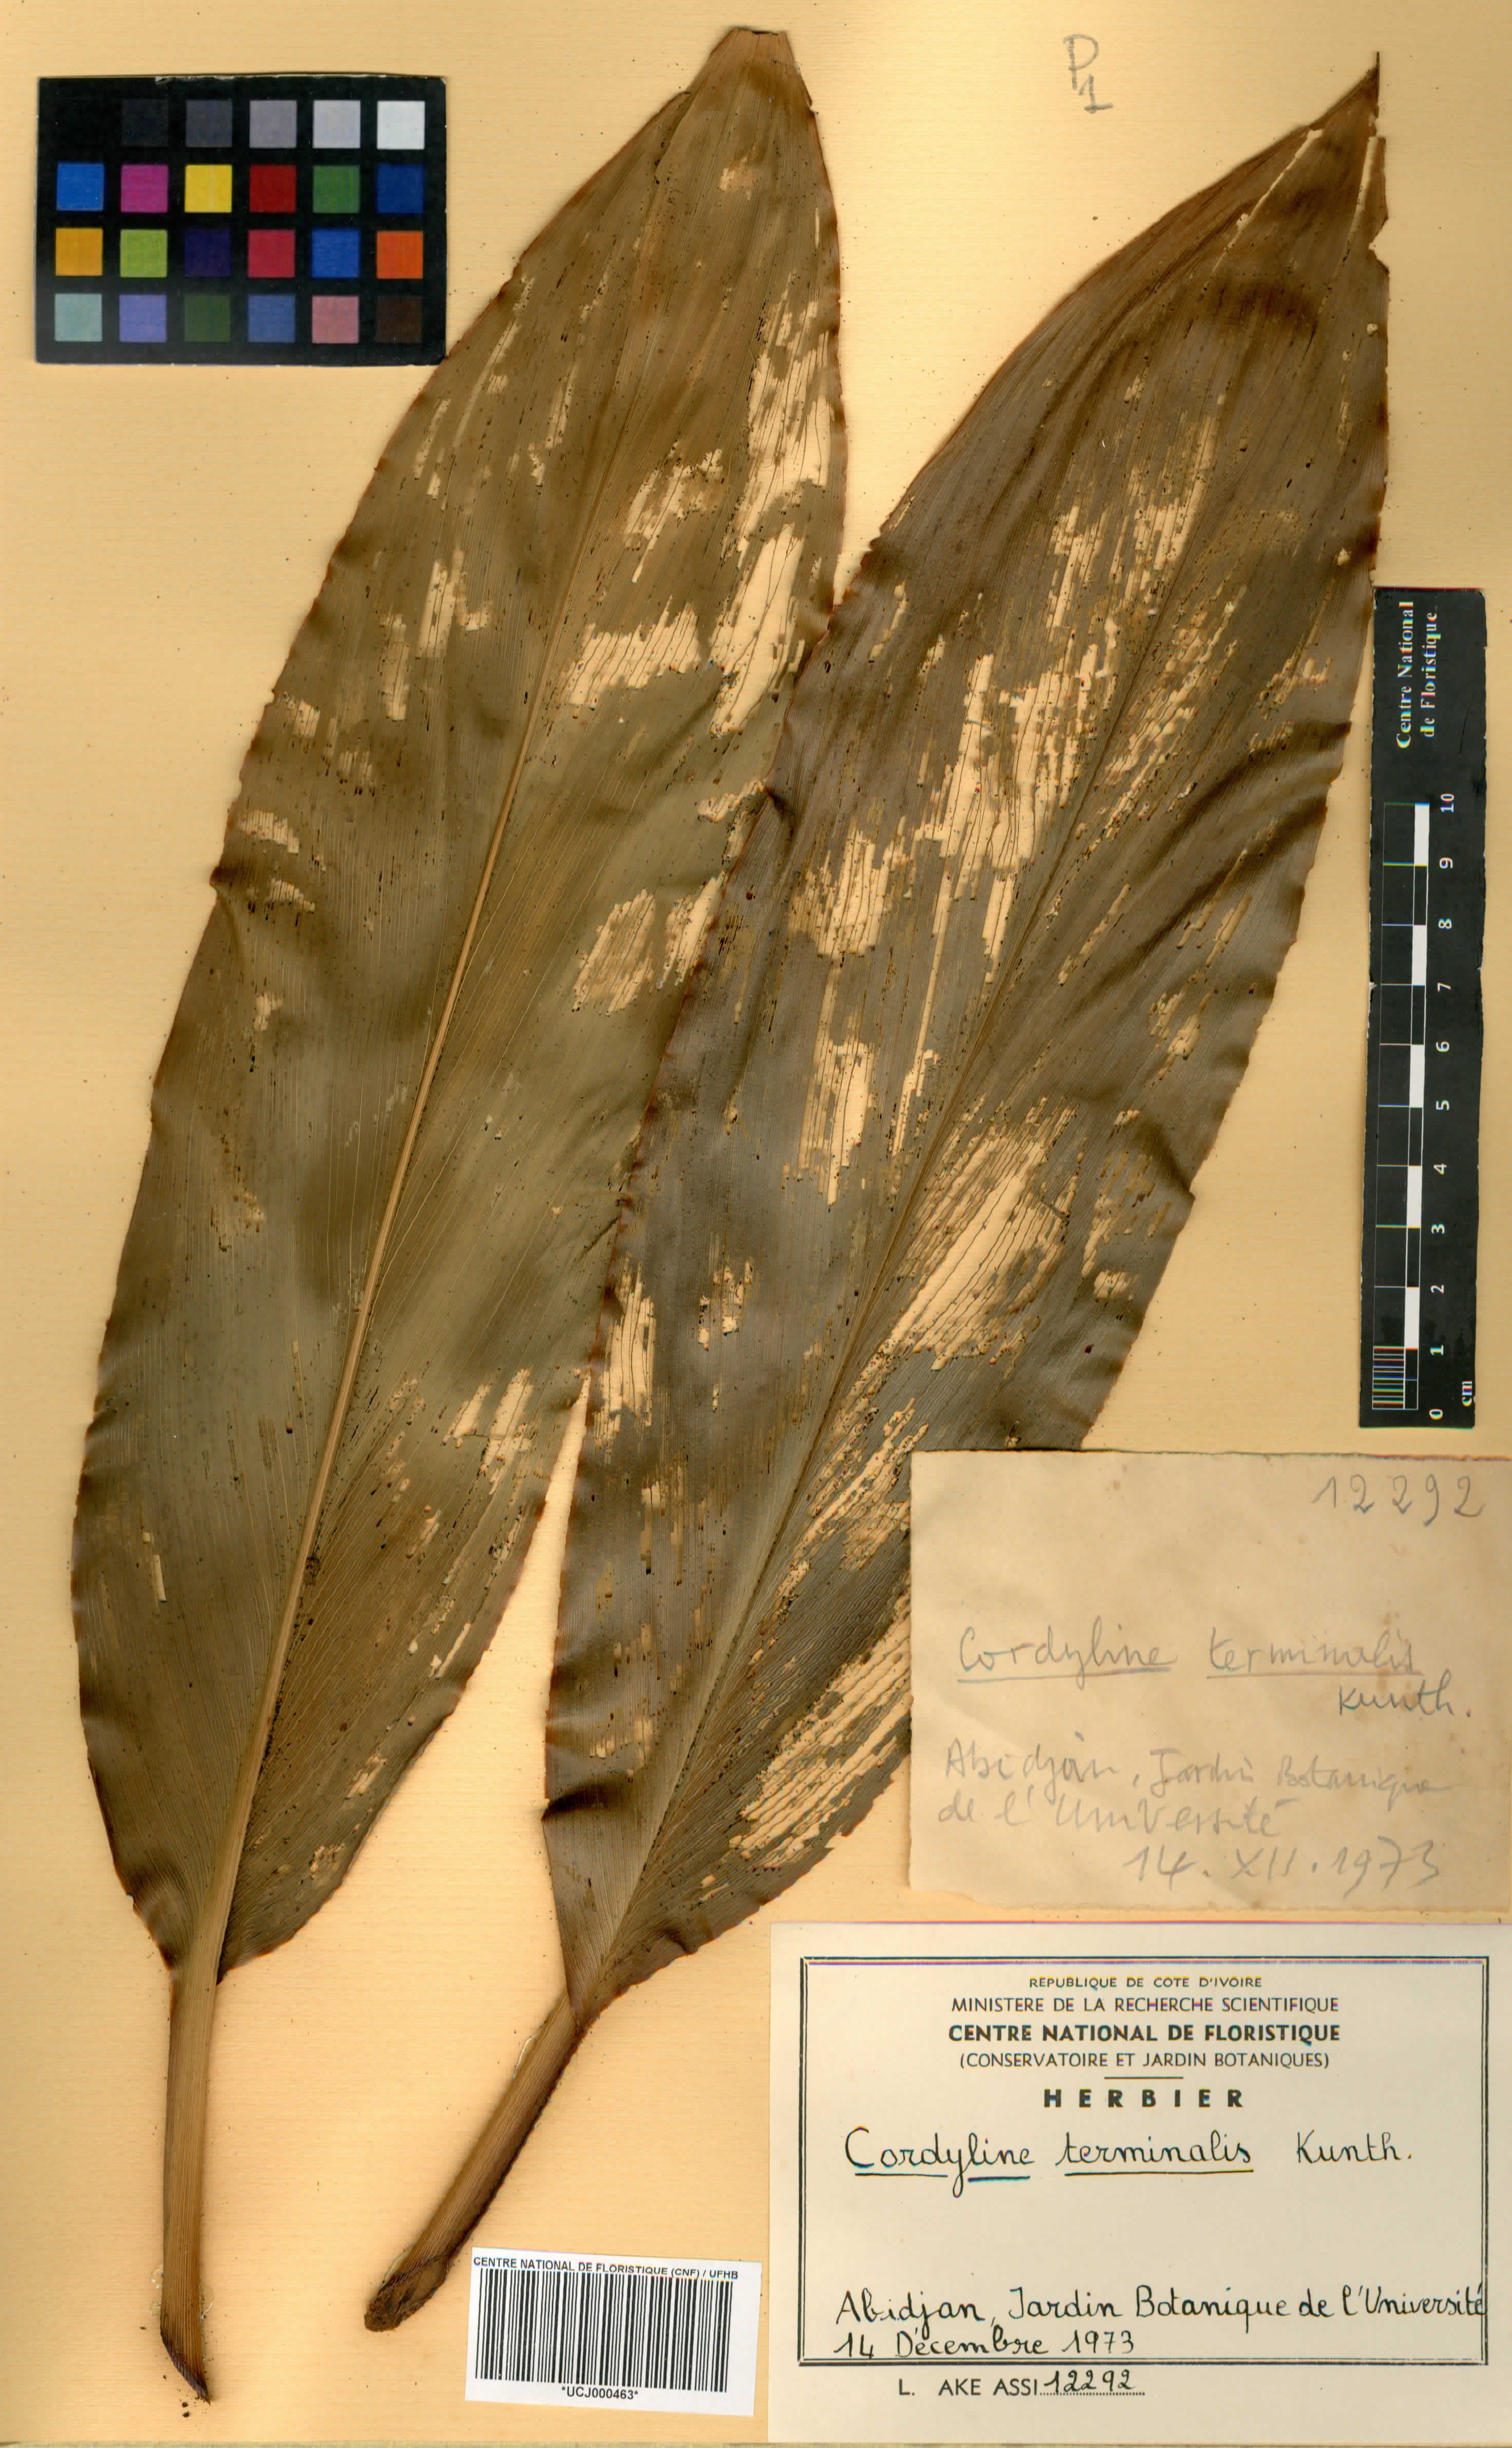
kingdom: Plantae
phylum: Tracheophyta
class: Liliopsida
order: Asparagales
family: Asparagaceae
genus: Cordyline
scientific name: Cordyline fruticosa
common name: Good-luck-plant
